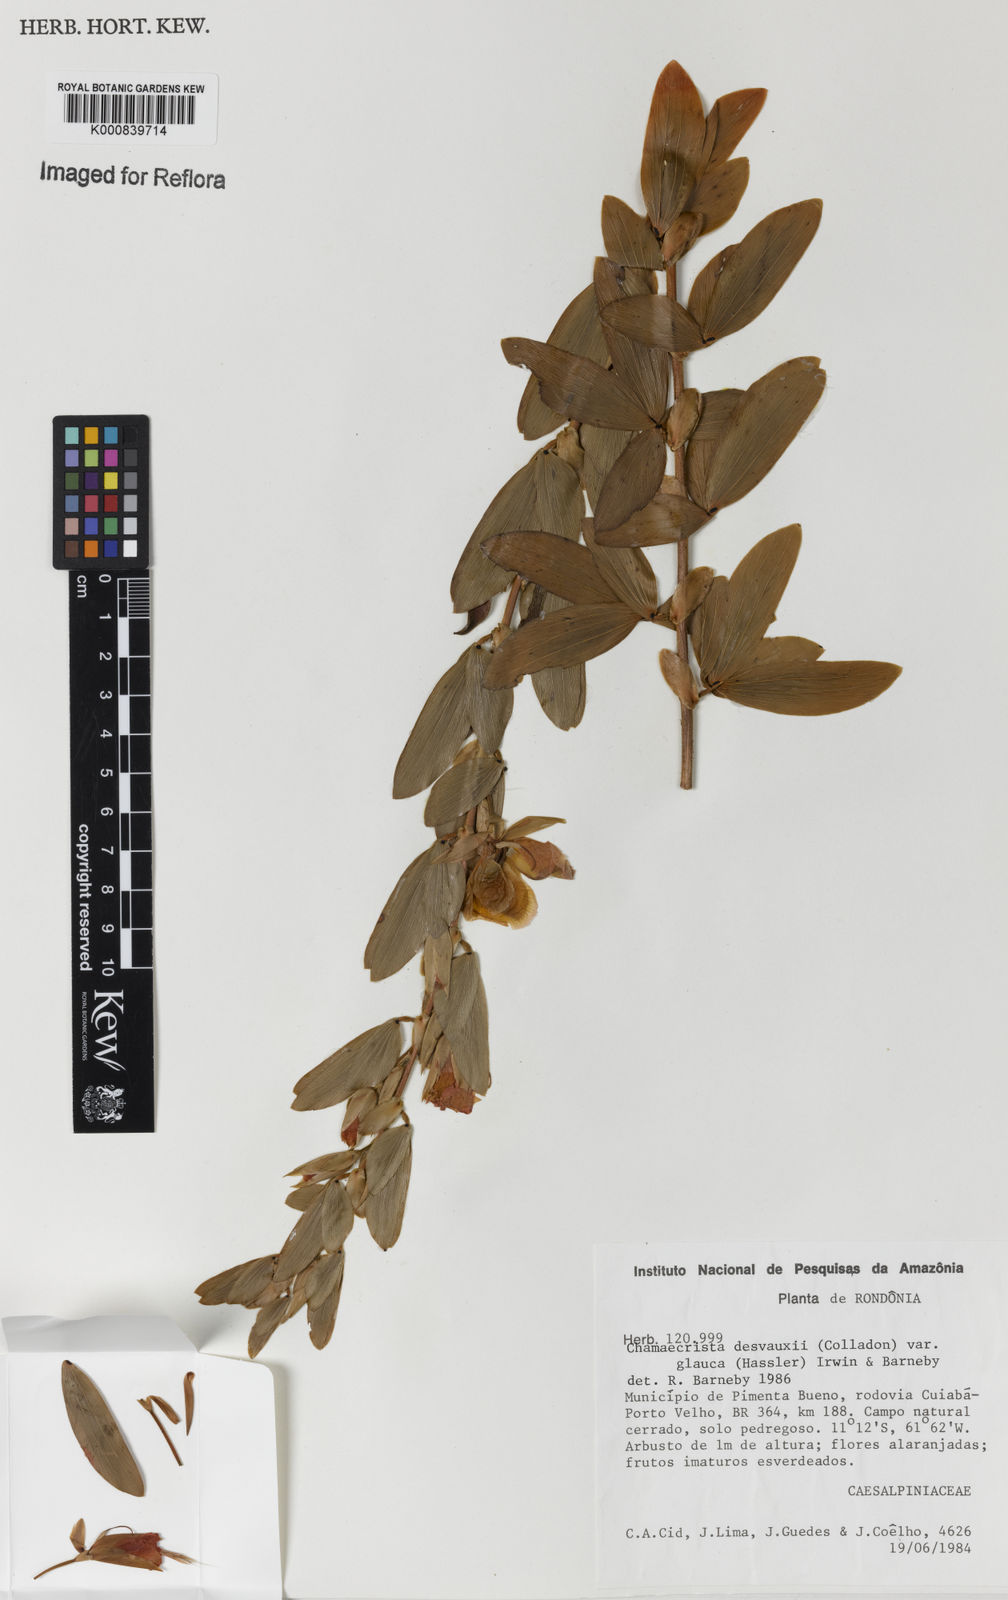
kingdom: Plantae
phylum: Tracheophyta
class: Magnoliopsida
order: Fabales
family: Fabaceae
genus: Chamaecrista
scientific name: Chamaecrista desvauxii
